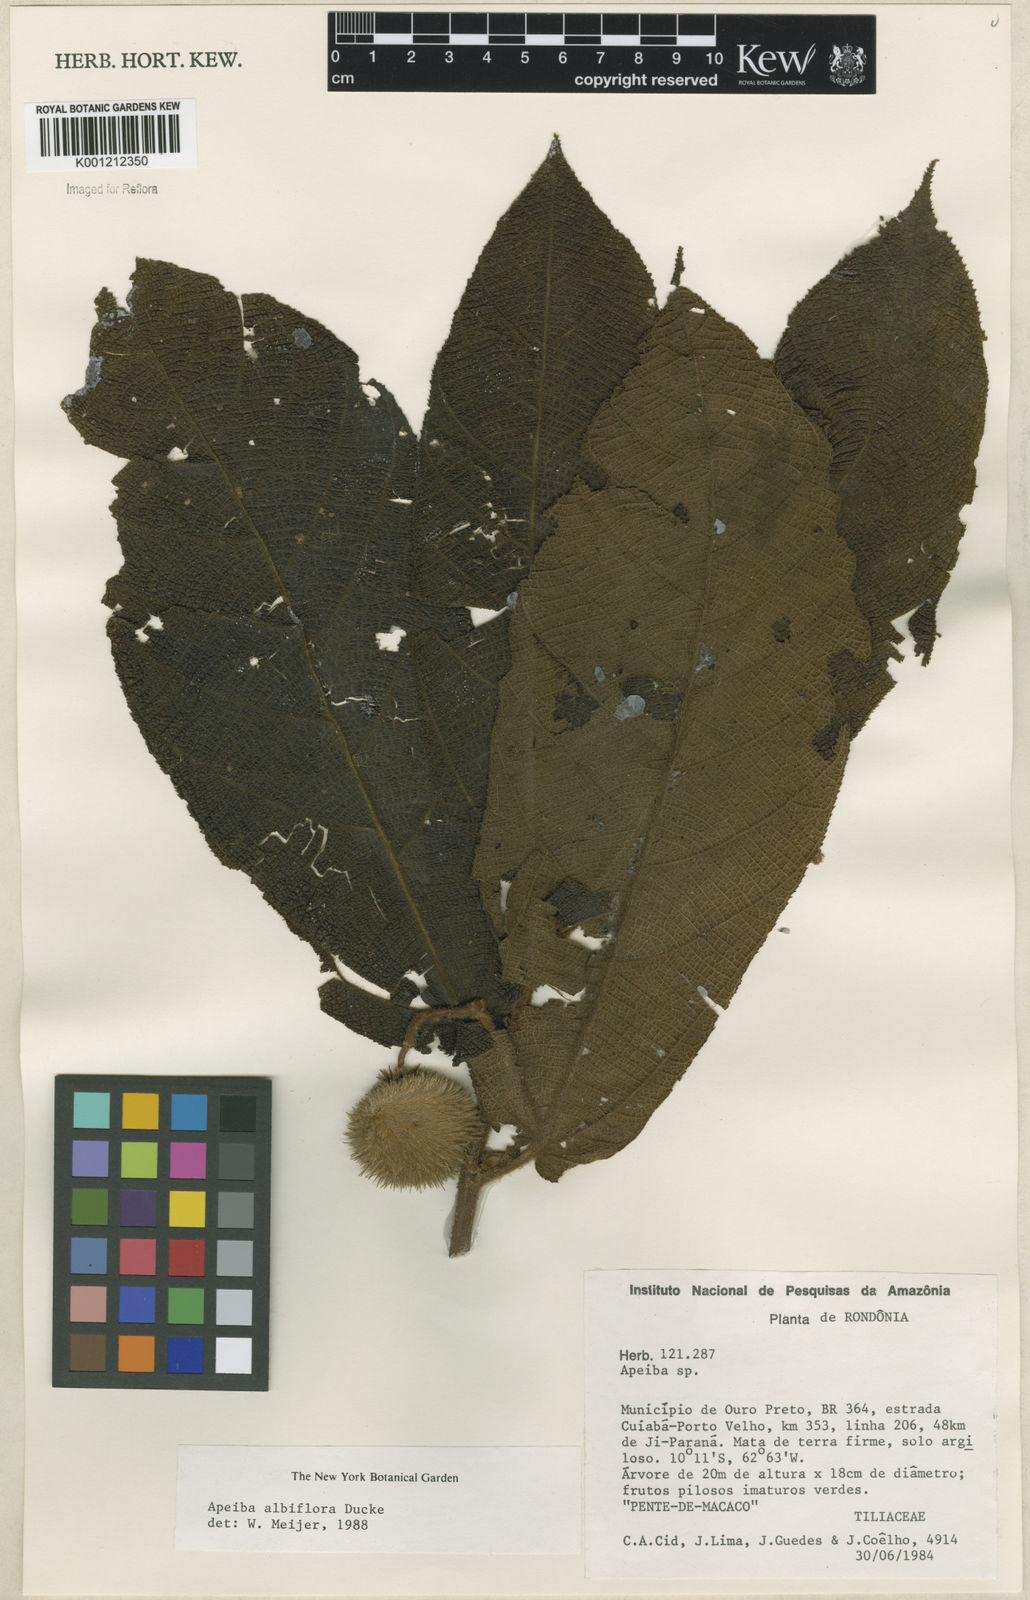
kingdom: Plantae
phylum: Tracheophyta
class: Magnoliopsida
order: Malvales
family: Malvaceae
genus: Apeiba
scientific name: Apeiba albiflora
